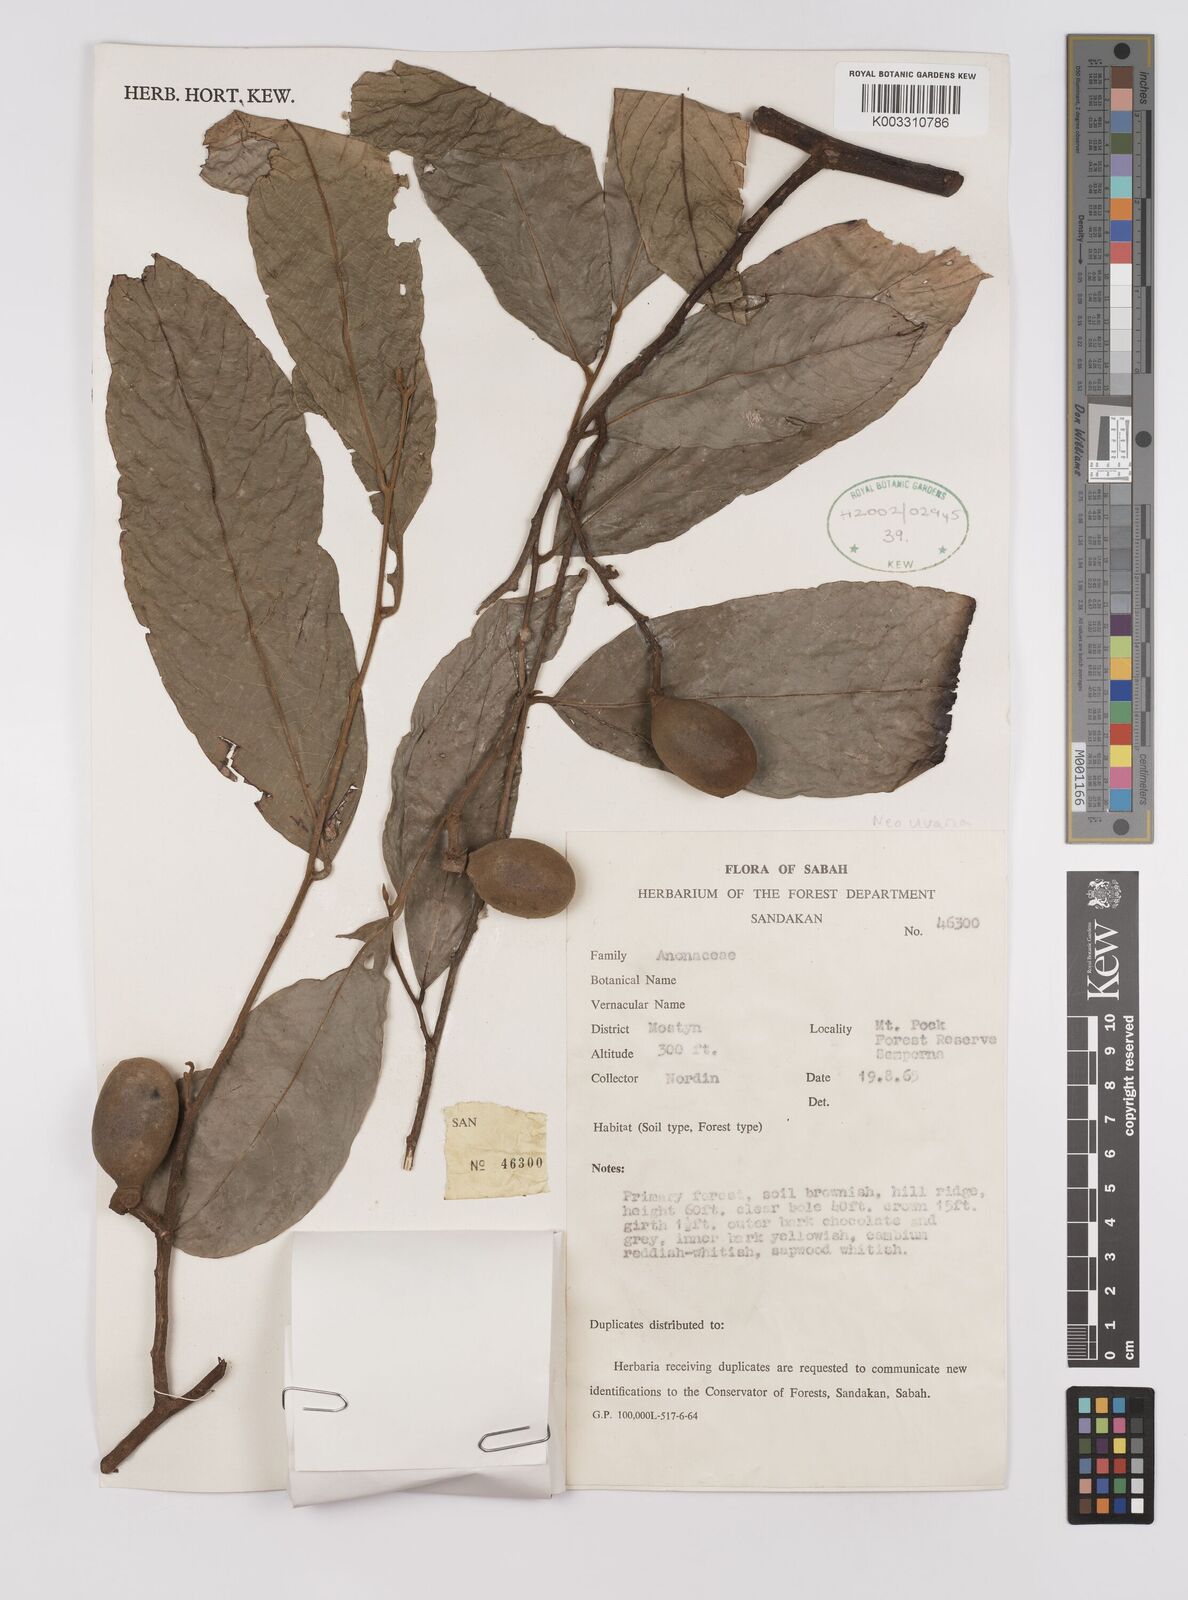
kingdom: Plantae
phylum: Tracheophyta
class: Magnoliopsida
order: Magnoliales
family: Annonaceae
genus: Neo-uvaria
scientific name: Neo-uvaria
